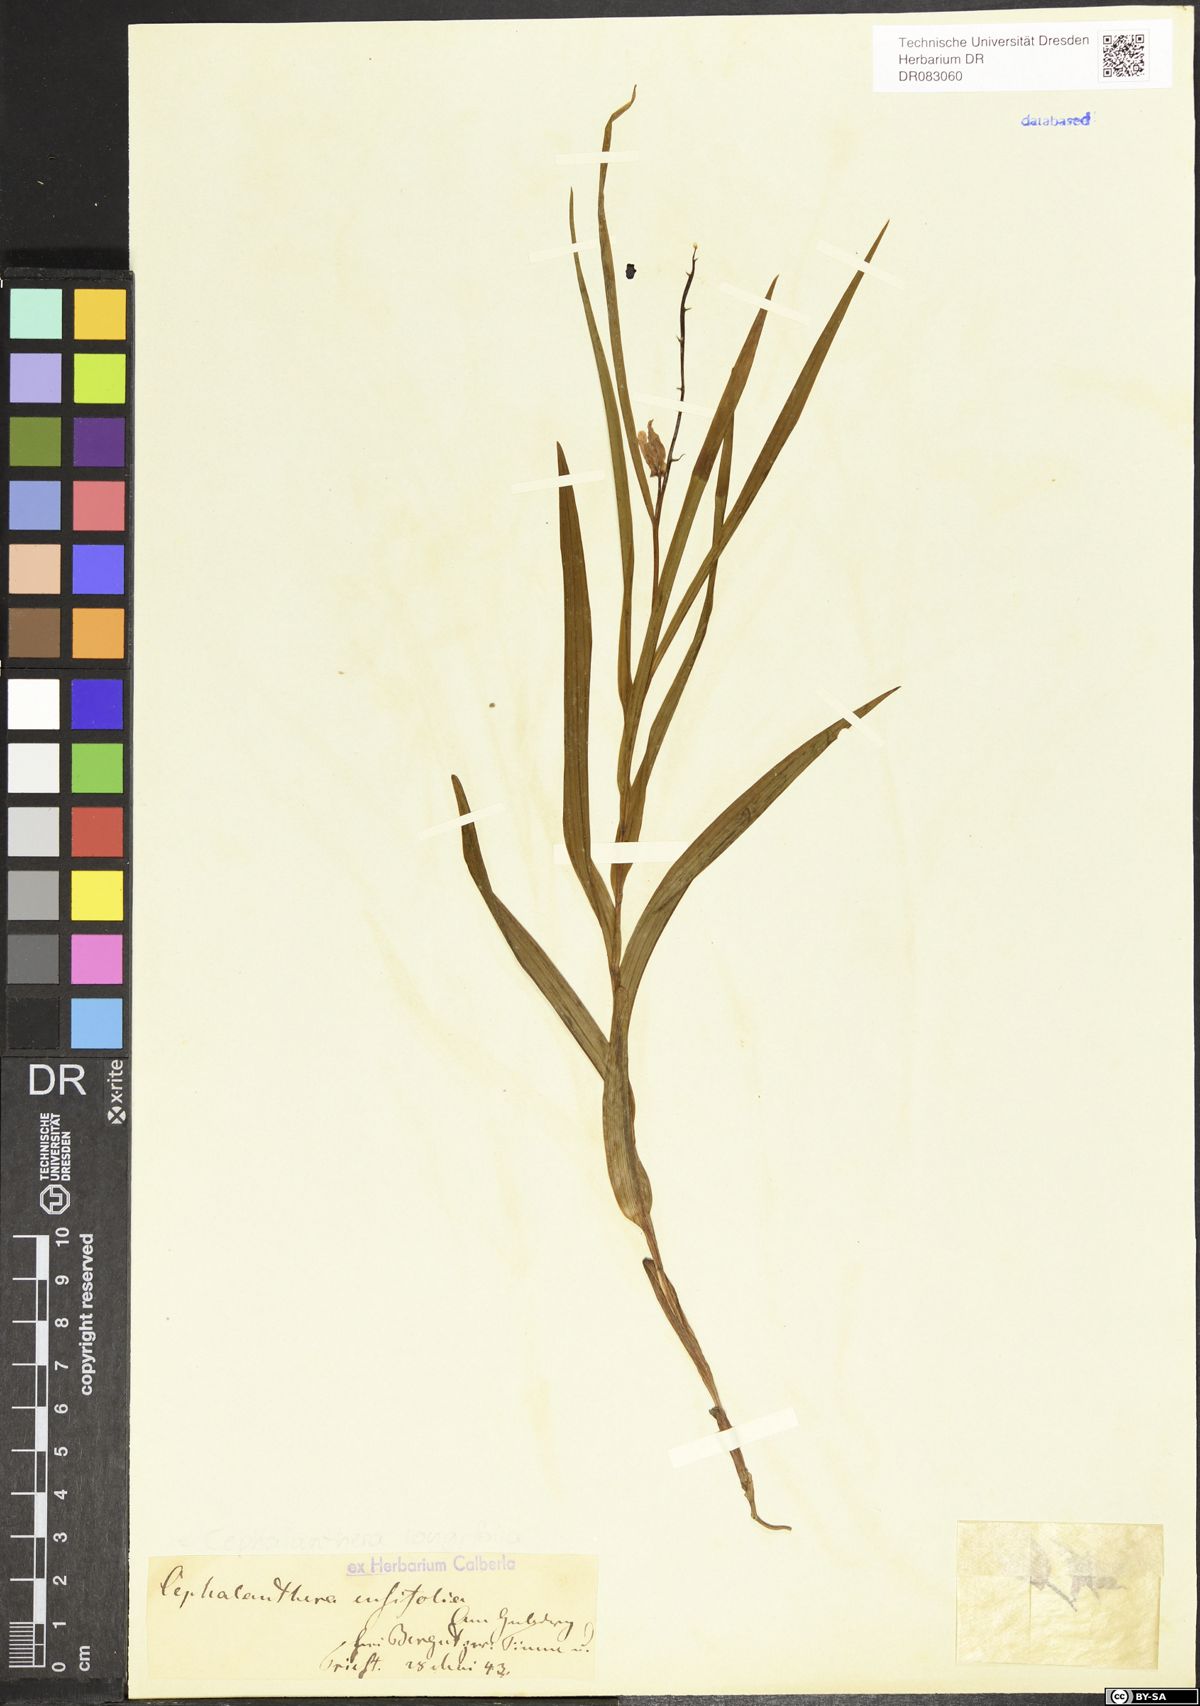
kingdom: Plantae
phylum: Tracheophyta
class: Liliopsida
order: Asparagales
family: Orchidaceae
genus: Cephalanthera
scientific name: Cephalanthera longifolia
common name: Narrow-leaved helleborine
